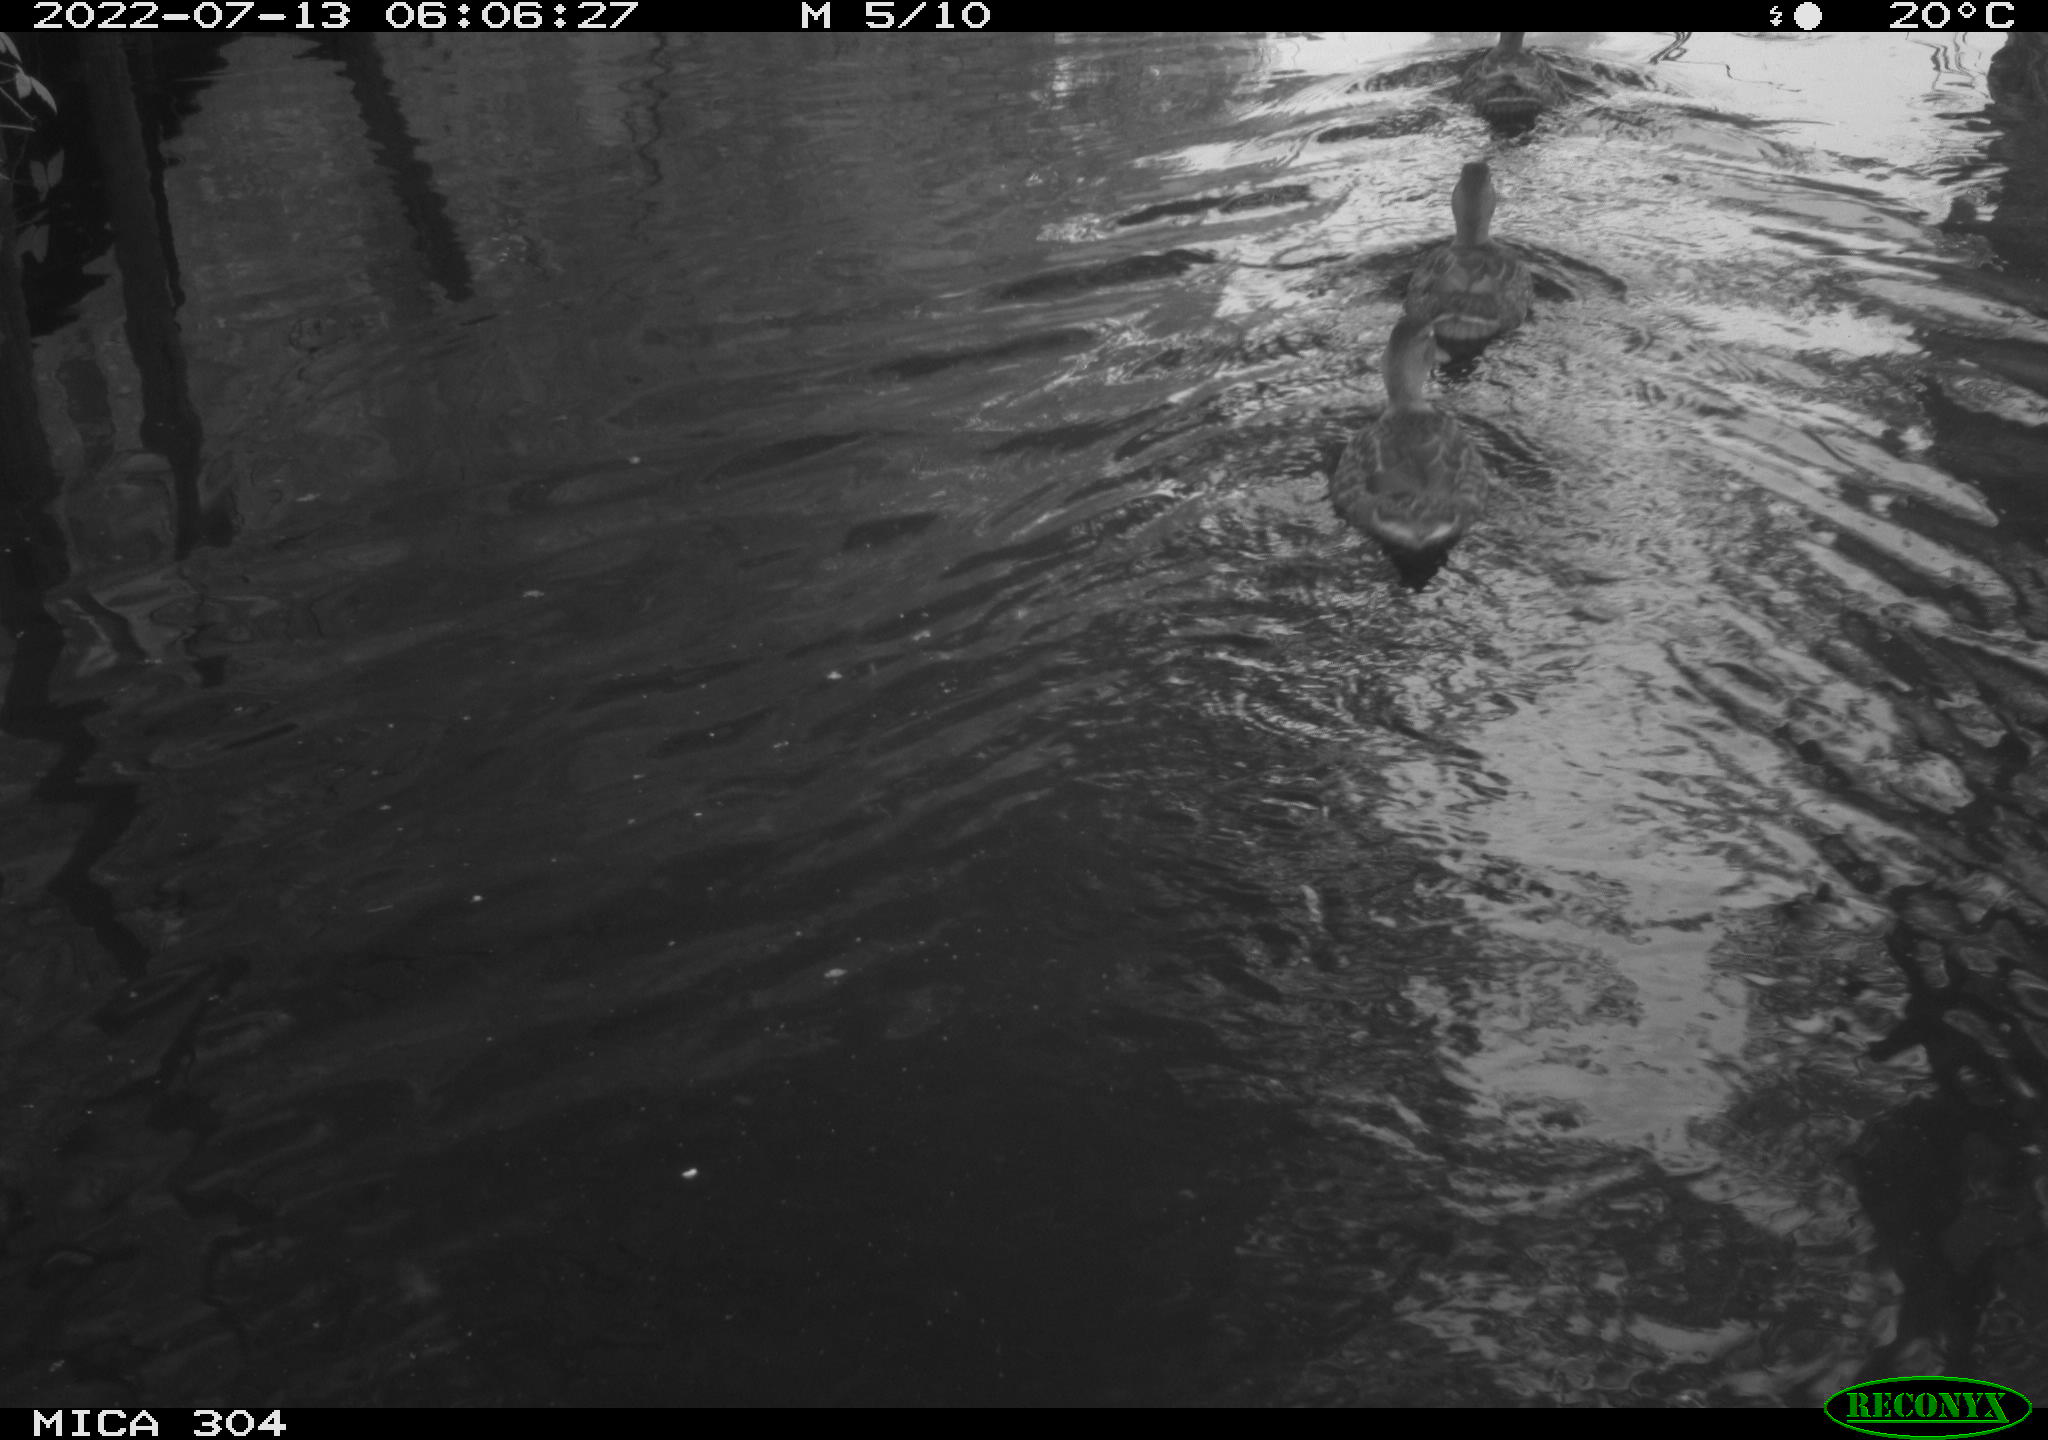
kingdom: Animalia
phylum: Chordata
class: Aves
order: Anseriformes
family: Anatidae
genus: Anas
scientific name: Anas platyrhynchos
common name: Mallard
